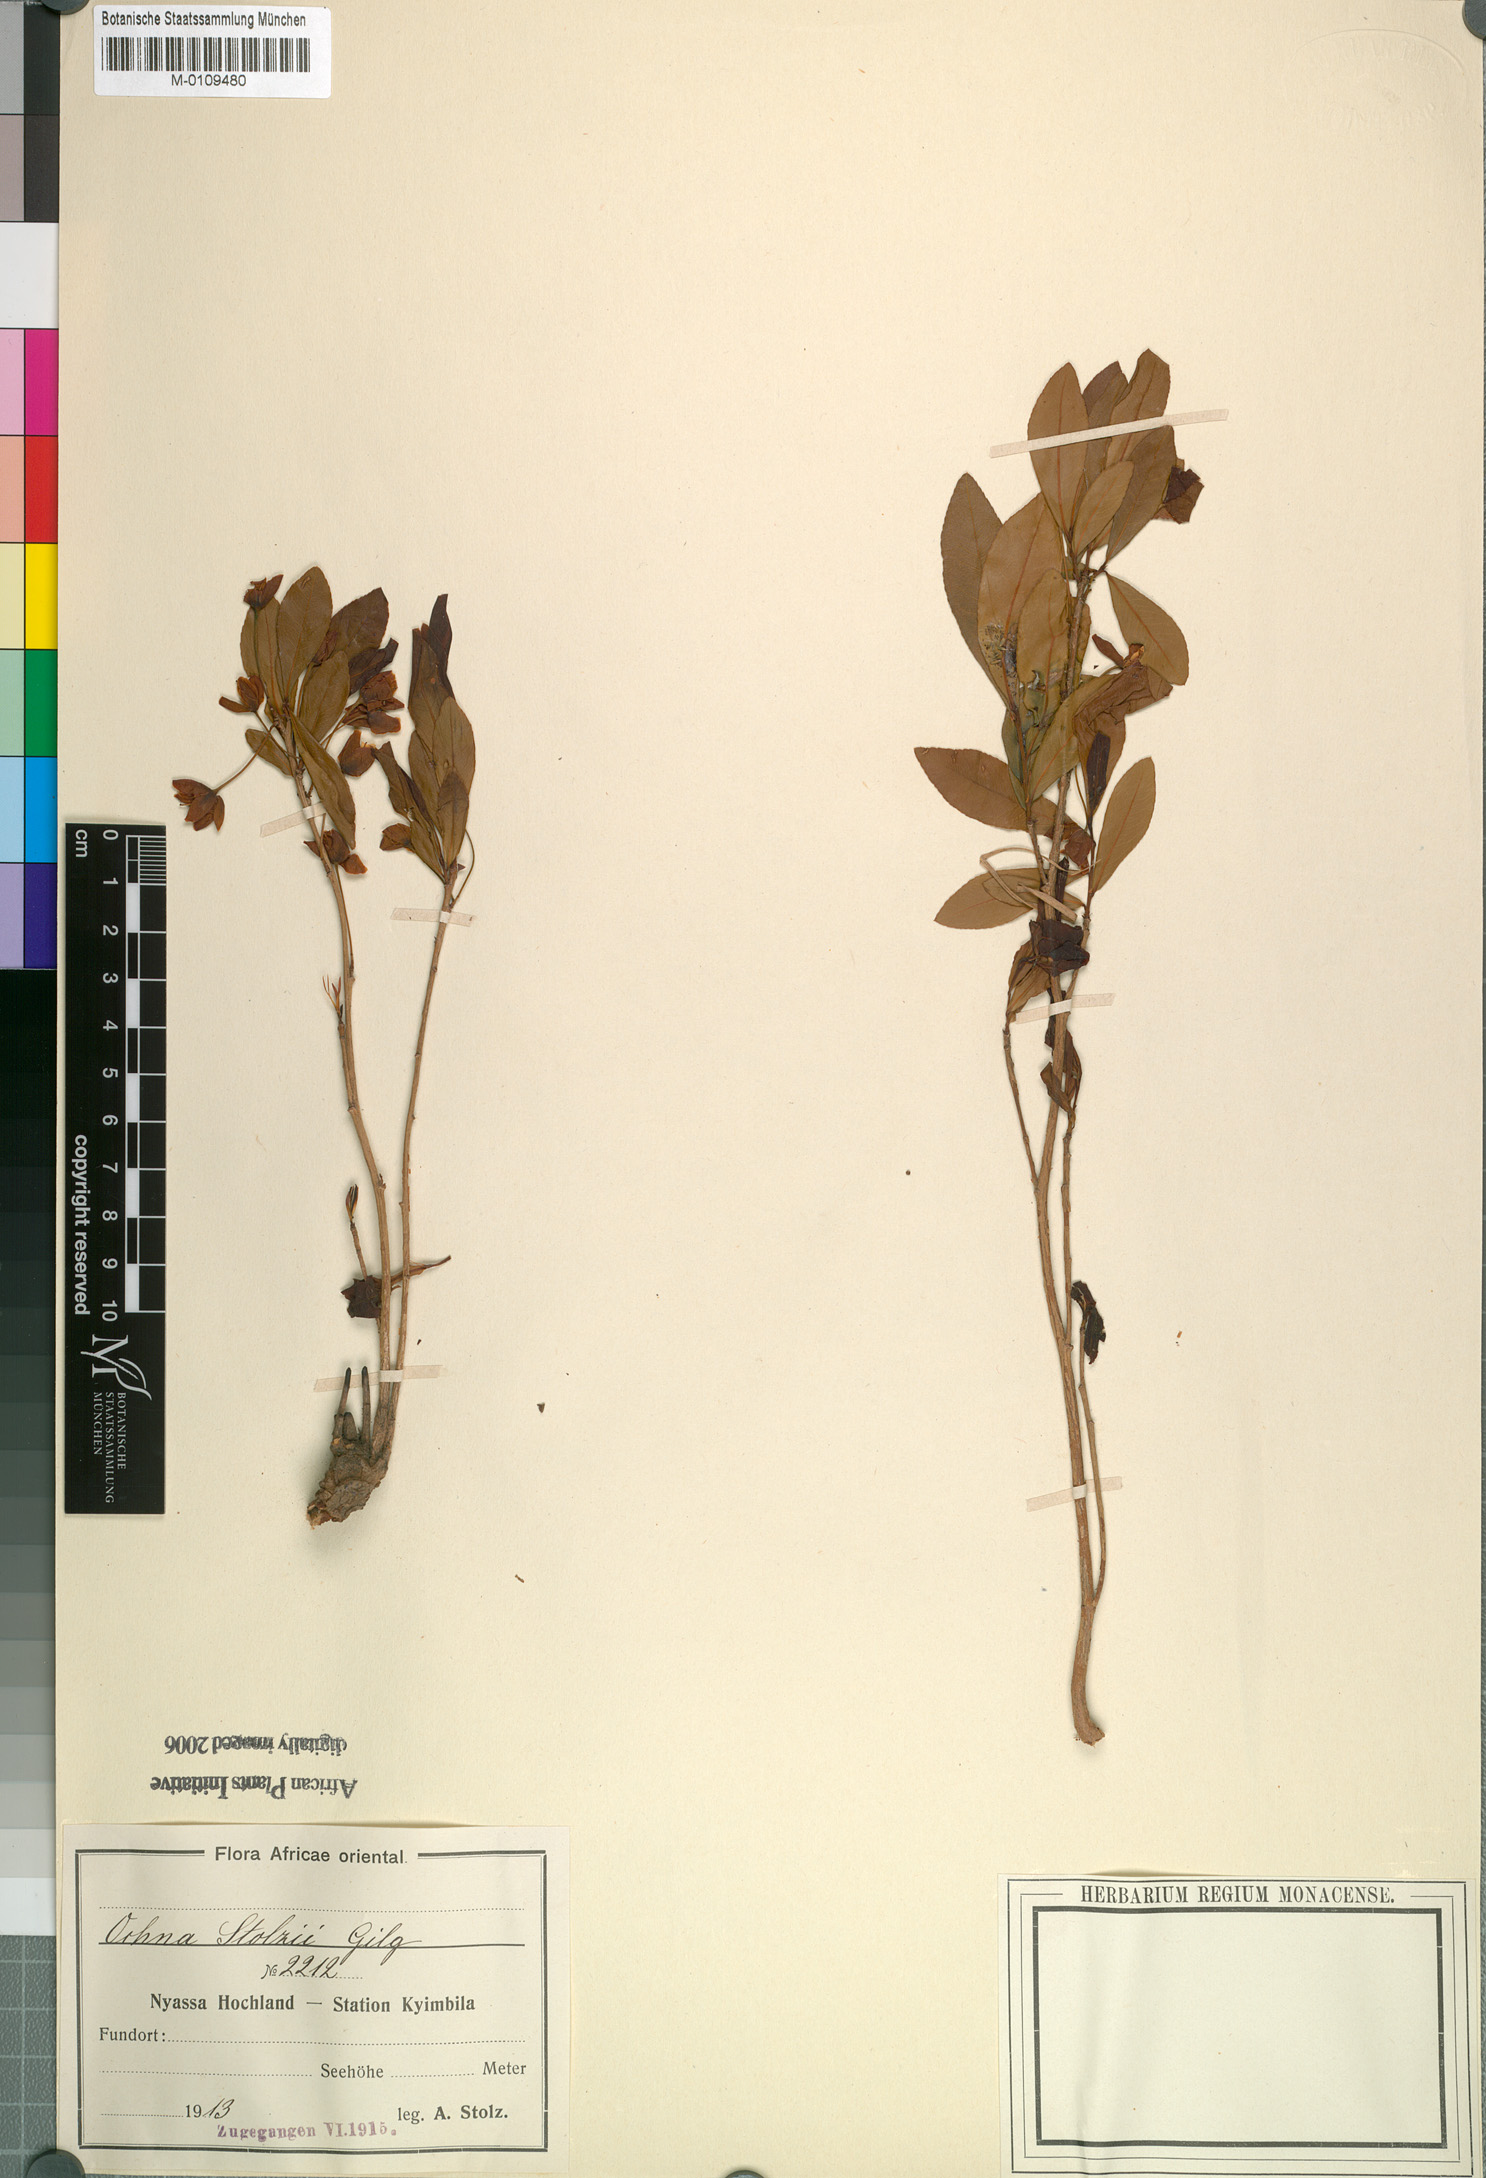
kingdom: Plantae
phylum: Tracheophyta
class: Magnoliopsida
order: Malpighiales
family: Ochnaceae
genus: Ochna
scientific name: Ochna stolzii
